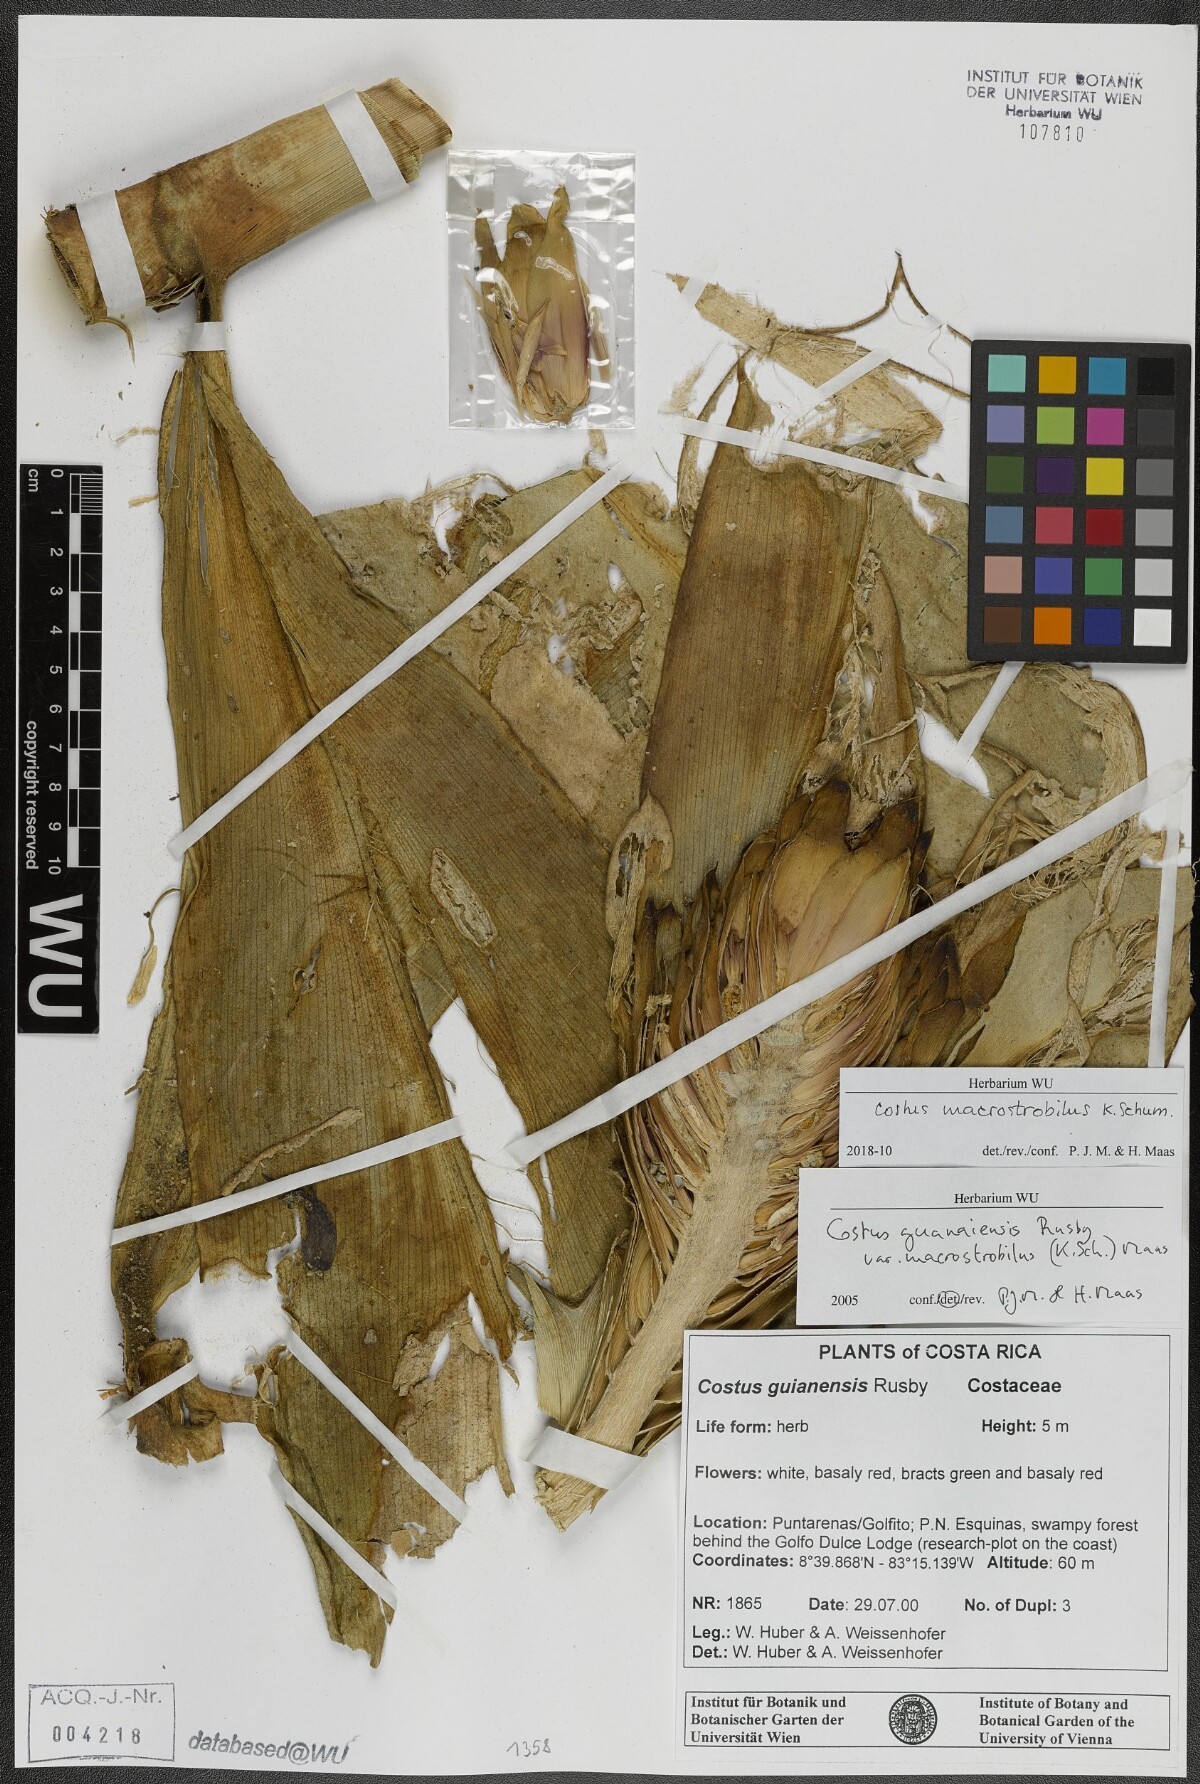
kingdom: Plantae
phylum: Tracheophyta
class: Liliopsida
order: Zingiberales
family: Costaceae
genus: Costus
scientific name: Costus guanaiensis
